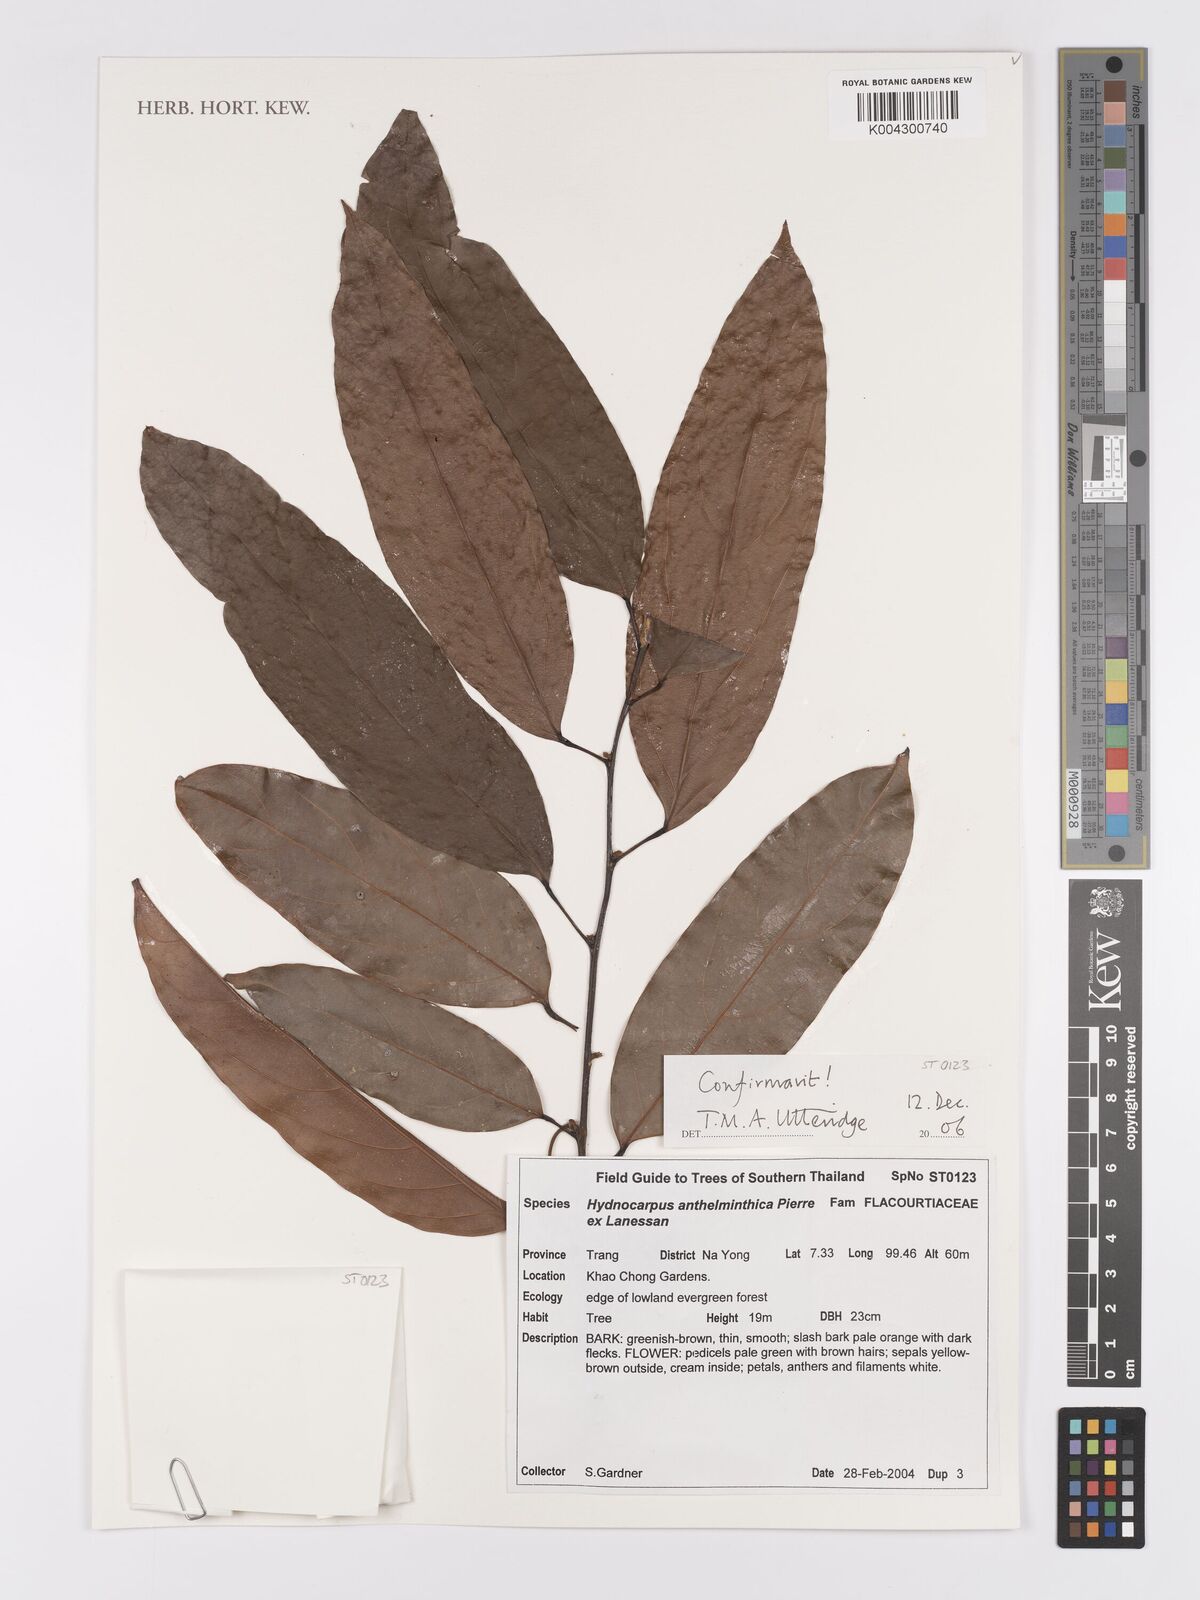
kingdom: Plantae
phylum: Tracheophyta
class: Magnoliopsida
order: Malpighiales
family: Achariaceae
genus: Hydnocarpus
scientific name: Hydnocarpus
